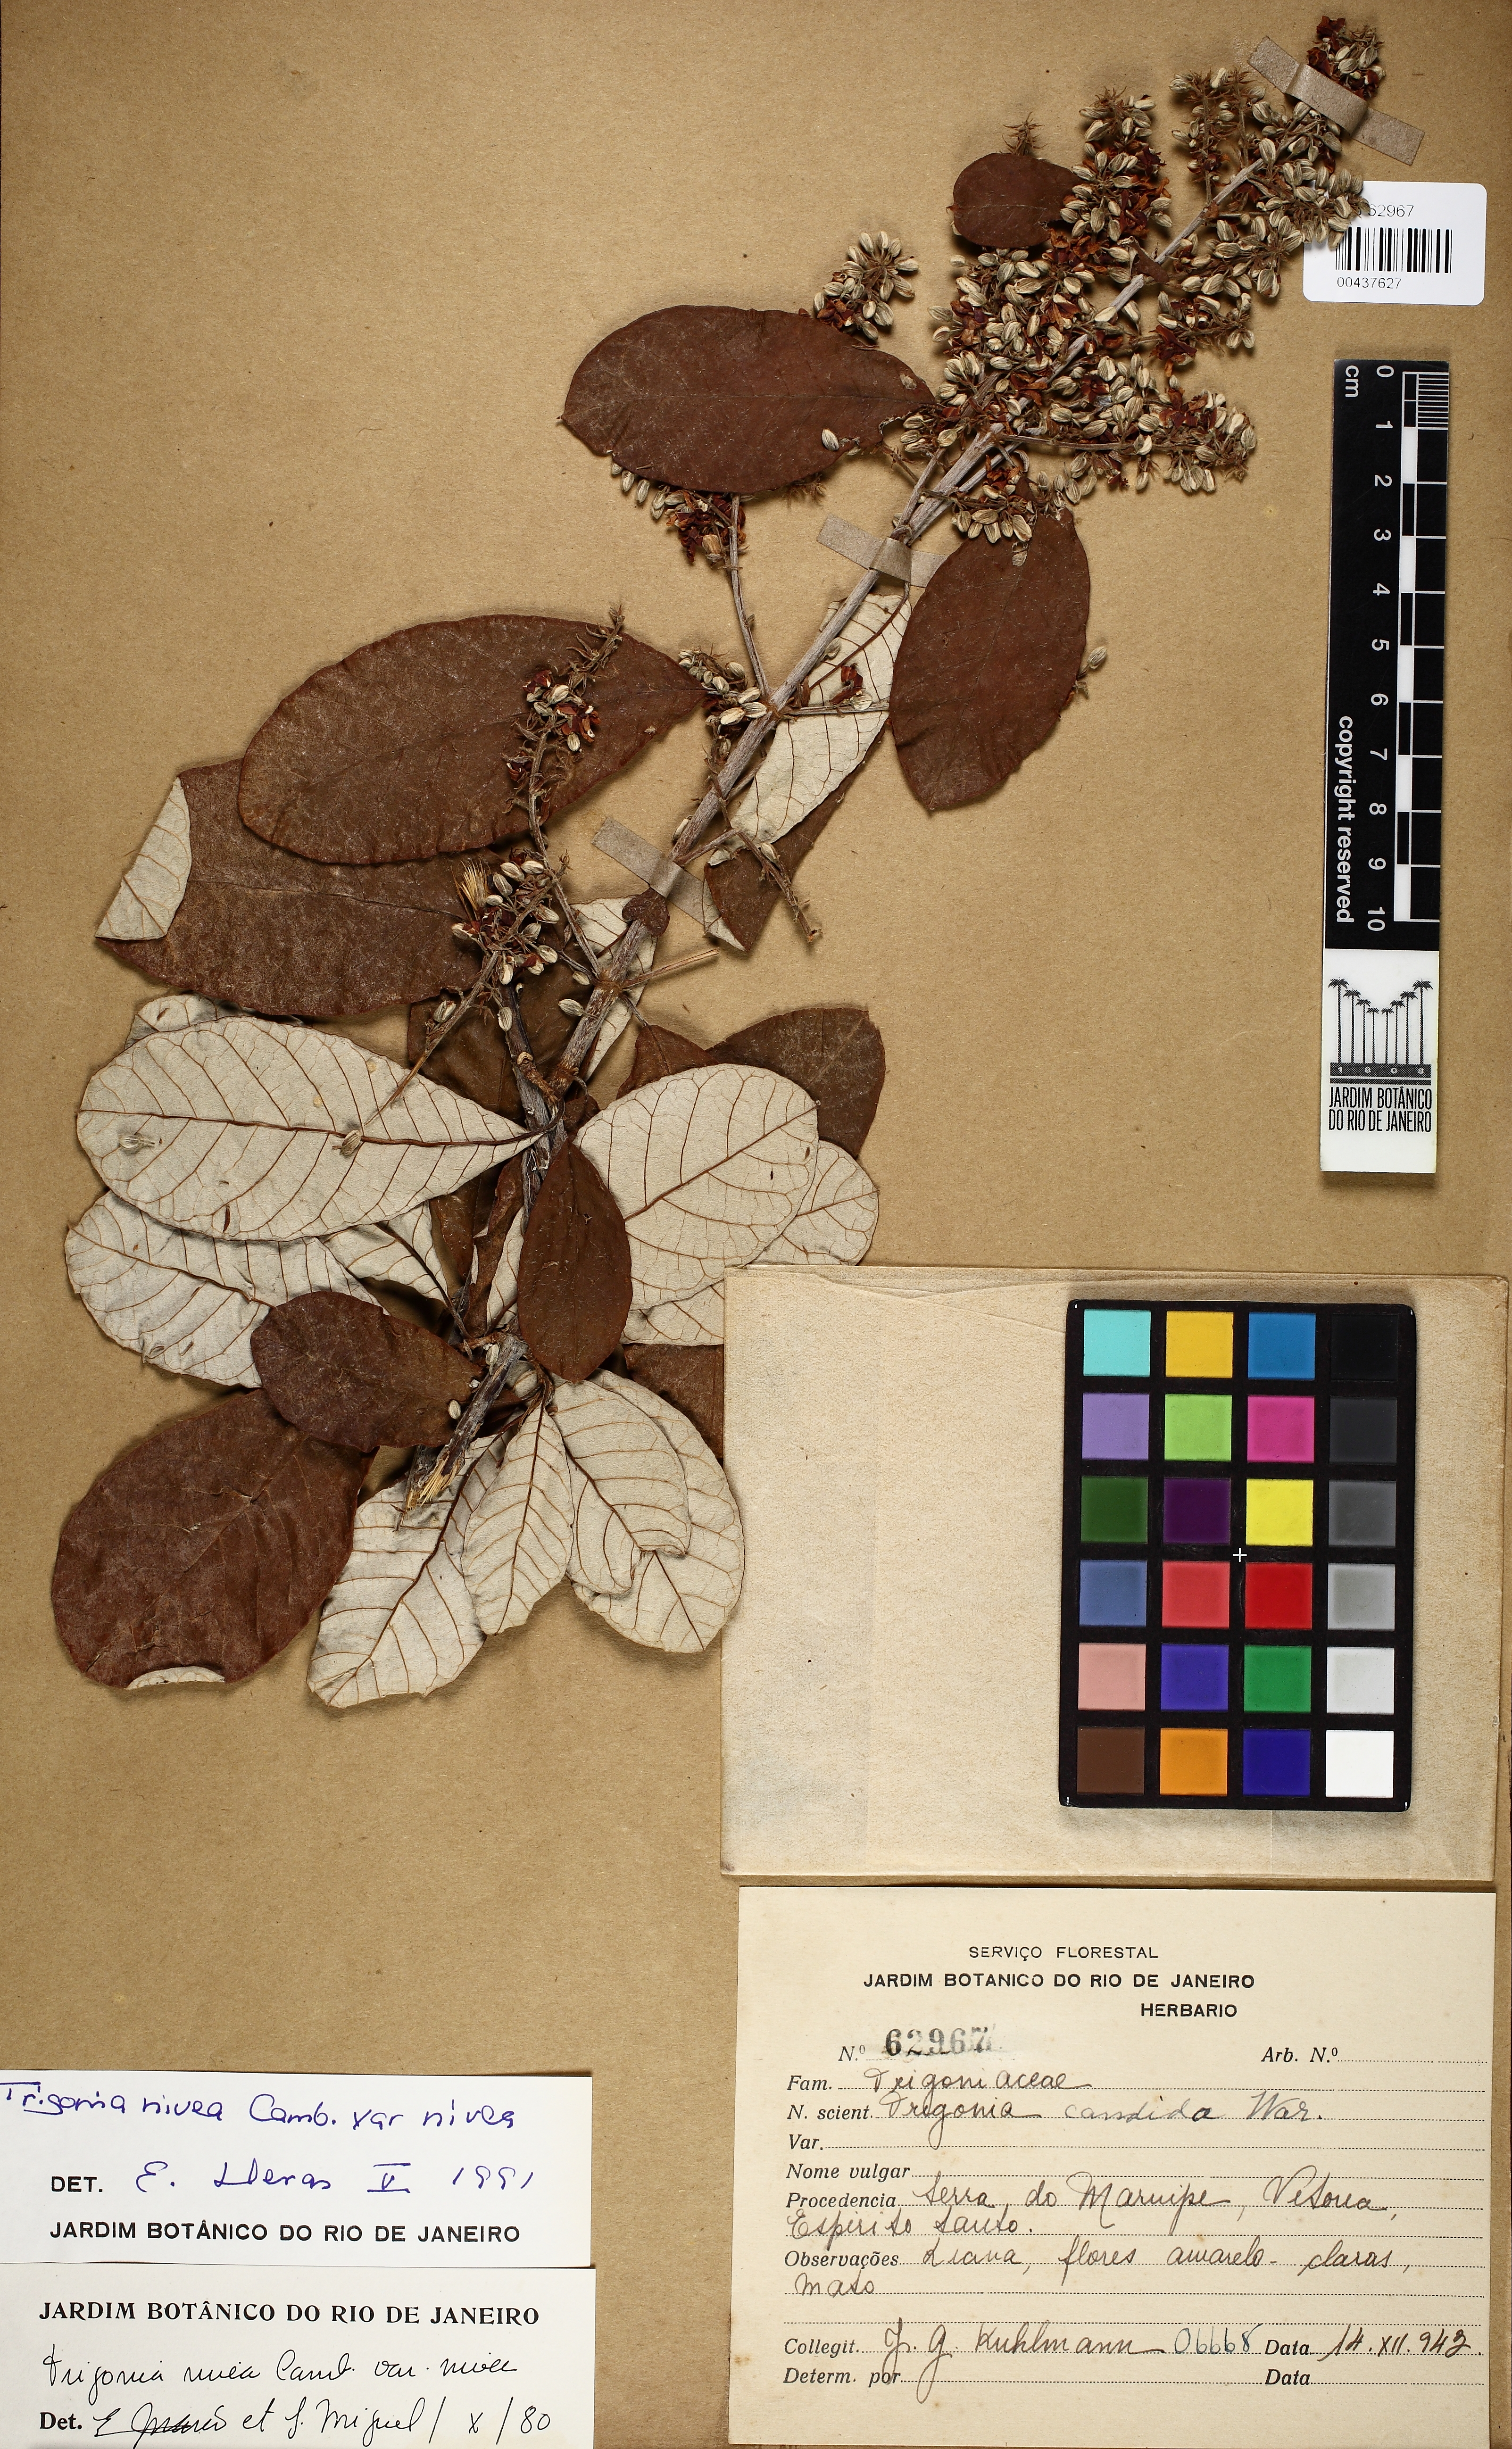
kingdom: Plantae
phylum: Tracheophyta
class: Magnoliopsida
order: Malpighiales
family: Trigoniaceae
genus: Trigonia
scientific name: Trigonia nivea
